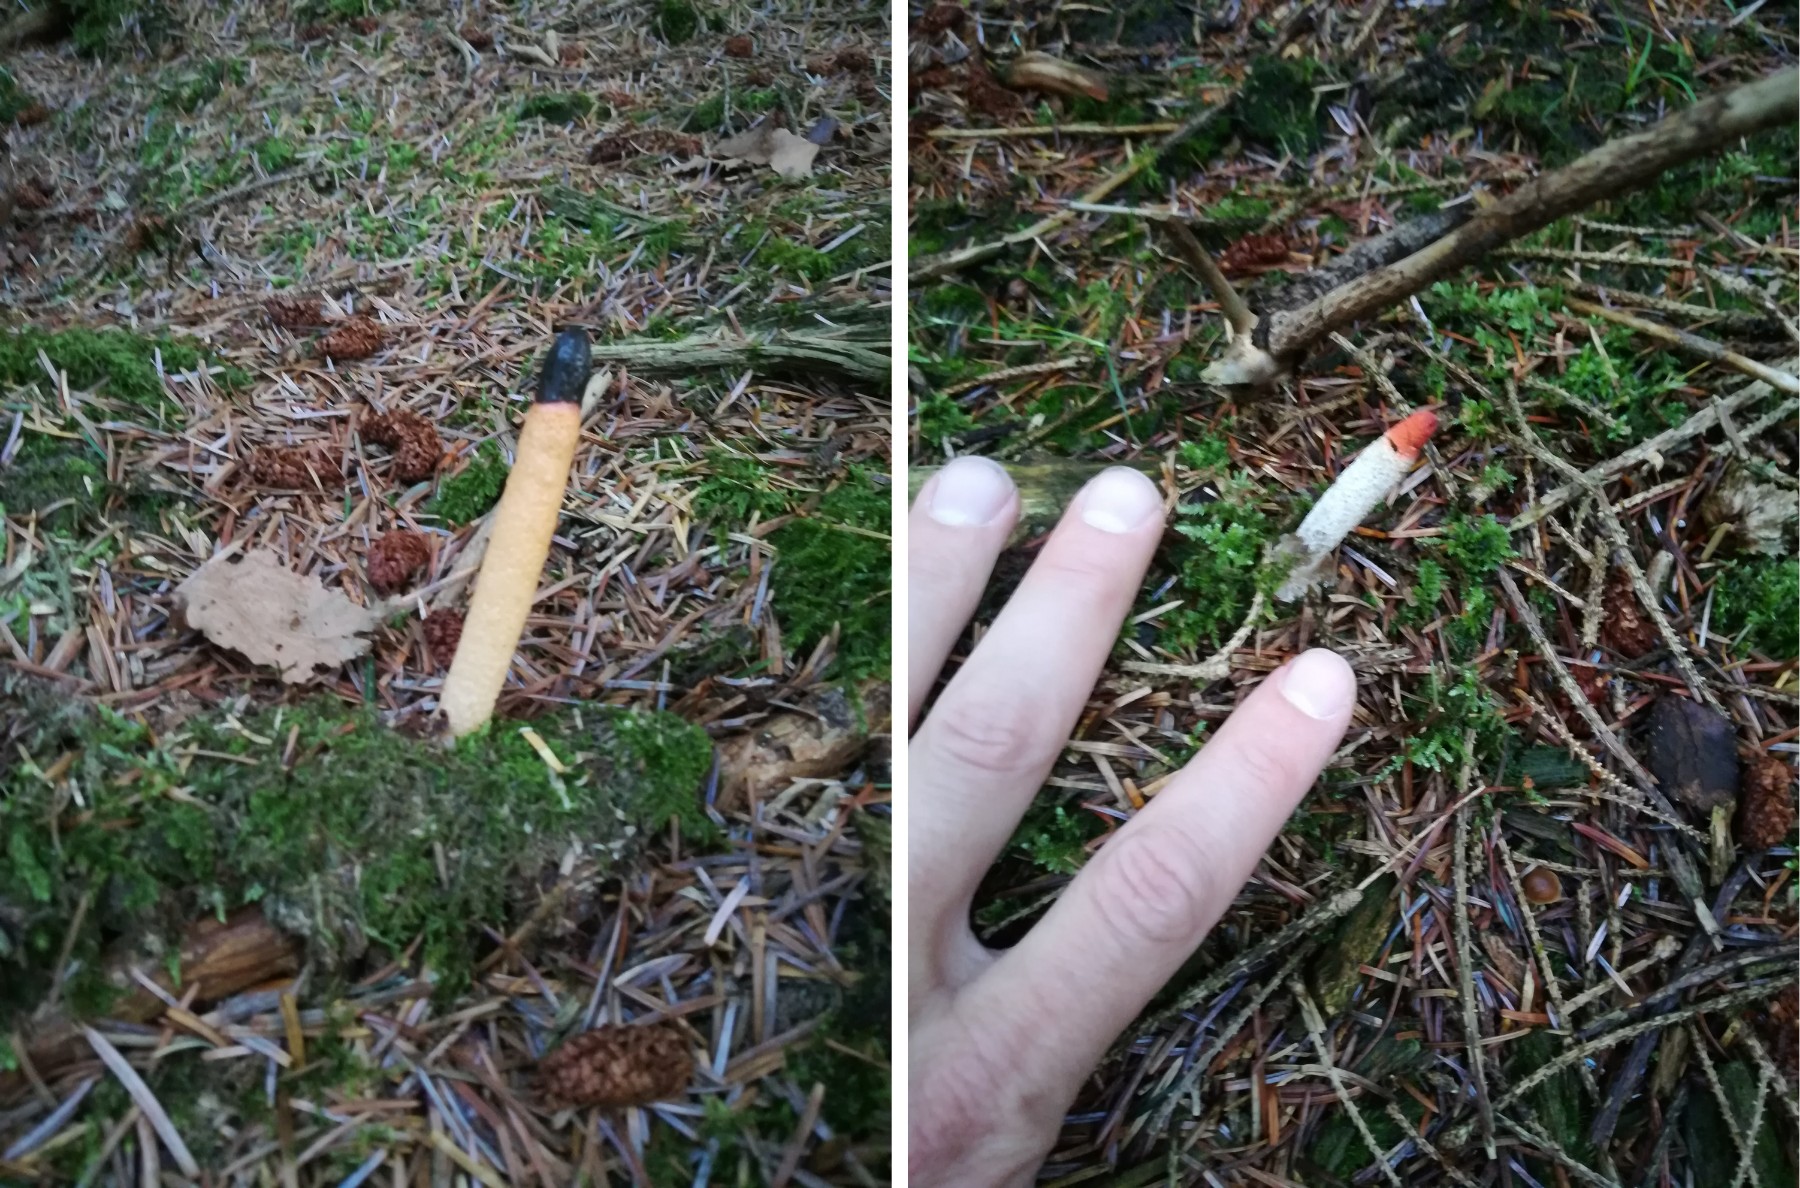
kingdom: Fungi
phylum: Basidiomycota
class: Agaricomycetes
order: Phallales
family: Phallaceae
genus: Mutinus
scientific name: Mutinus caninus
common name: hunde-stinksvamp
